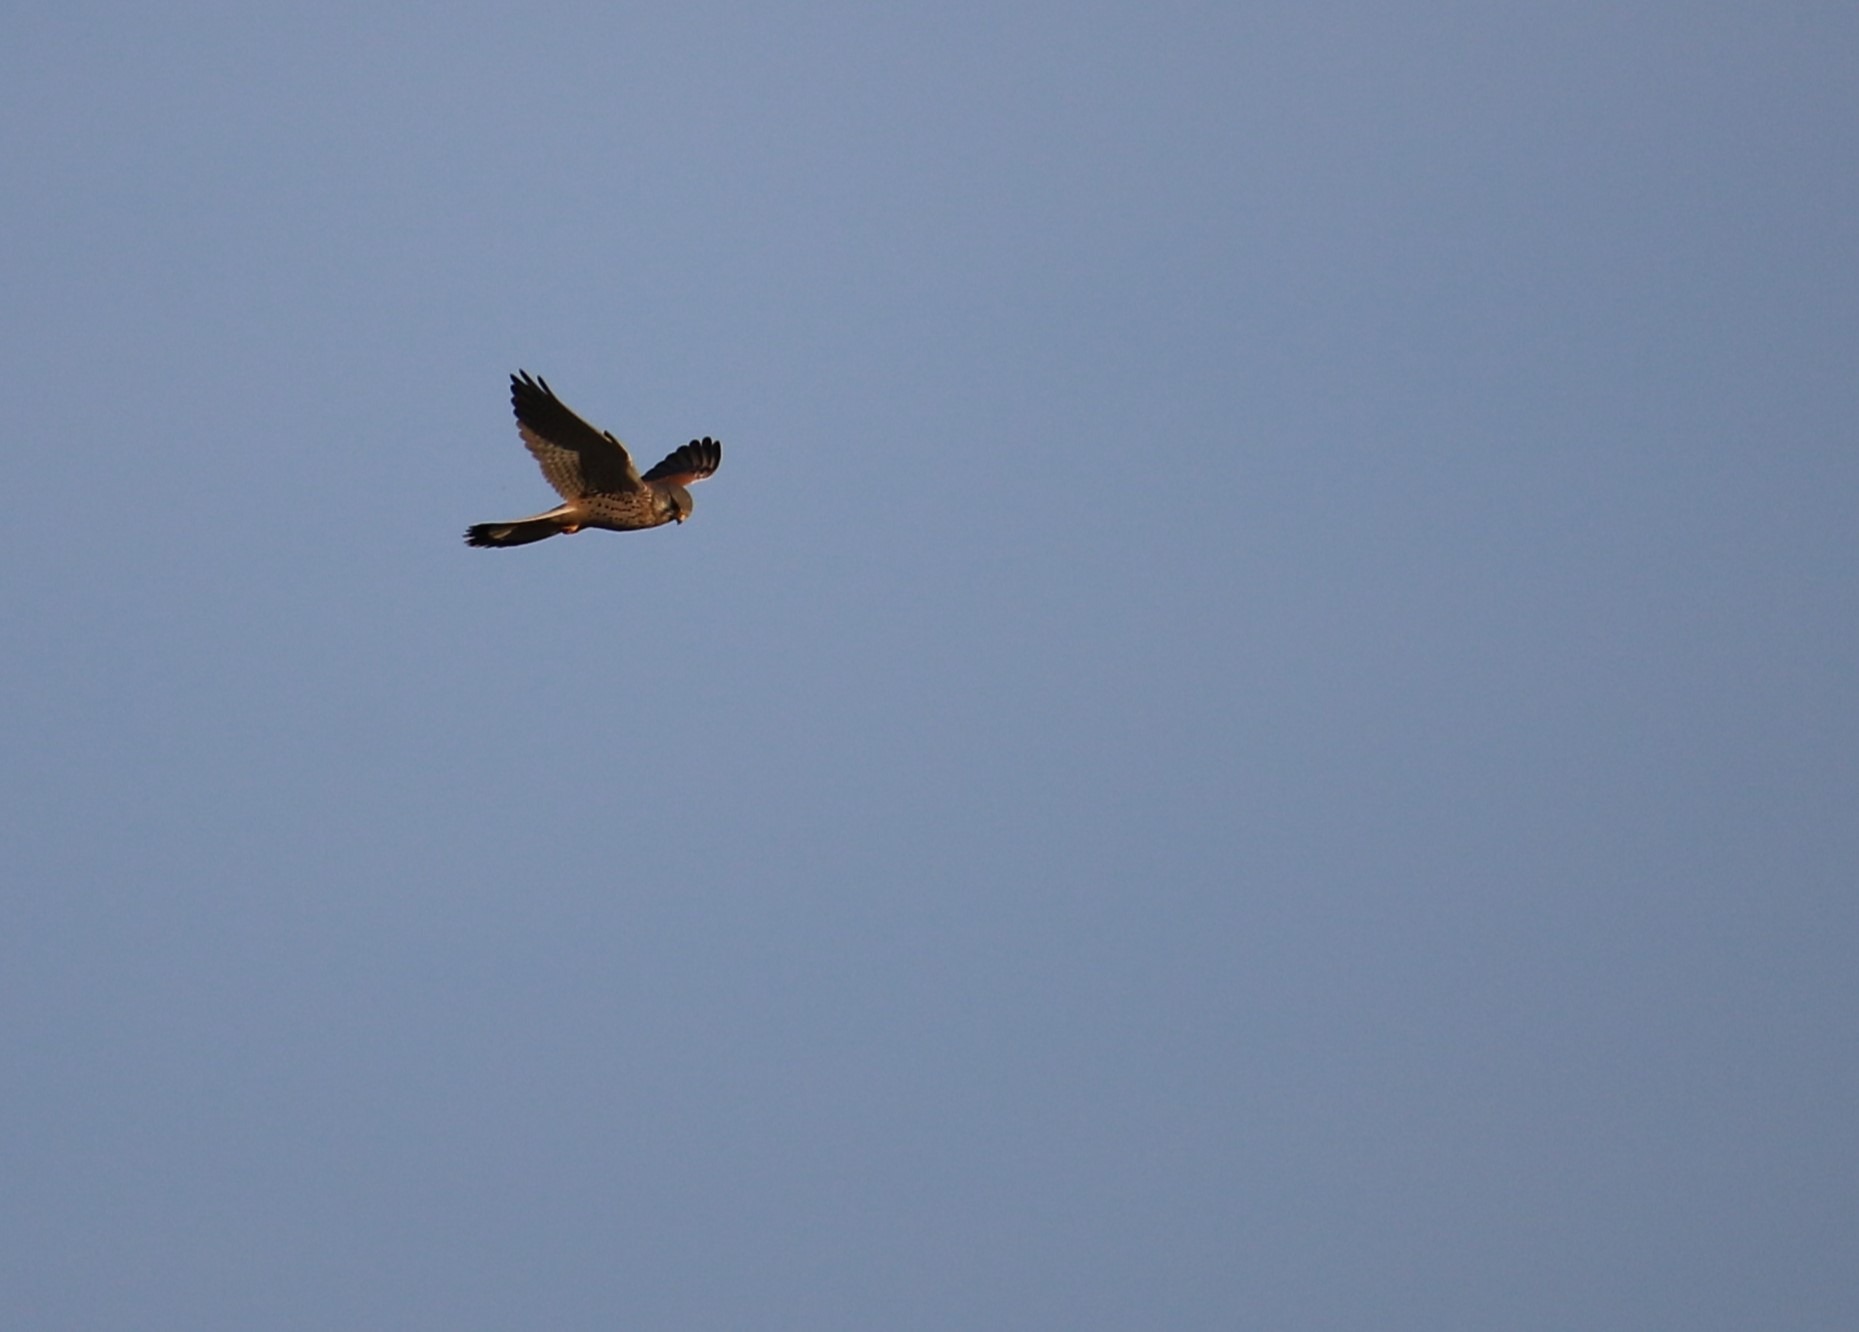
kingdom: Animalia
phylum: Chordata
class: Aves
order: Falconiformes
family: Falconidae
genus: Falco
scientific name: Falco tinnunculus
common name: Tårnfalk
